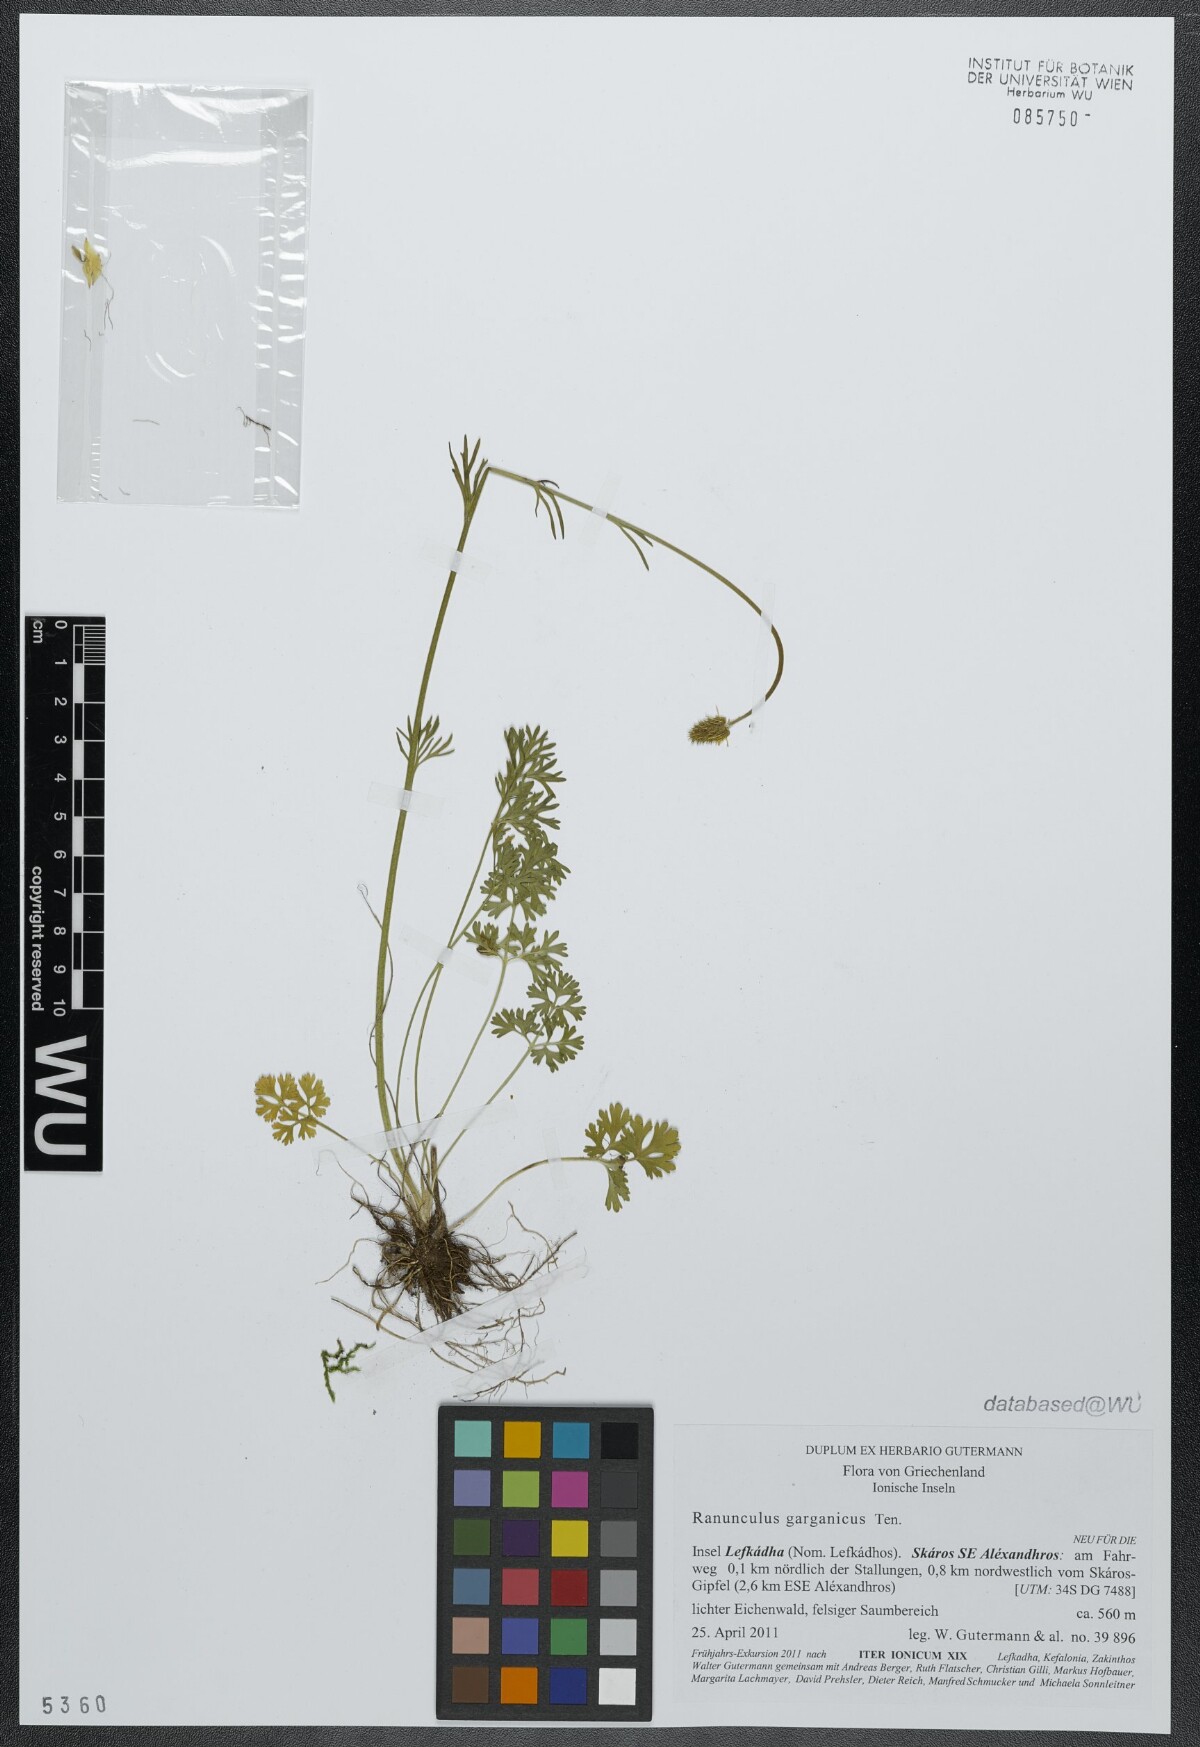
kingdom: Plantae
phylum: Tracheophyta
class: Magnoliopsida
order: Ranunculales
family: Ranunculaceae
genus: Ranunculus
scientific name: Ranunculus garganicus
